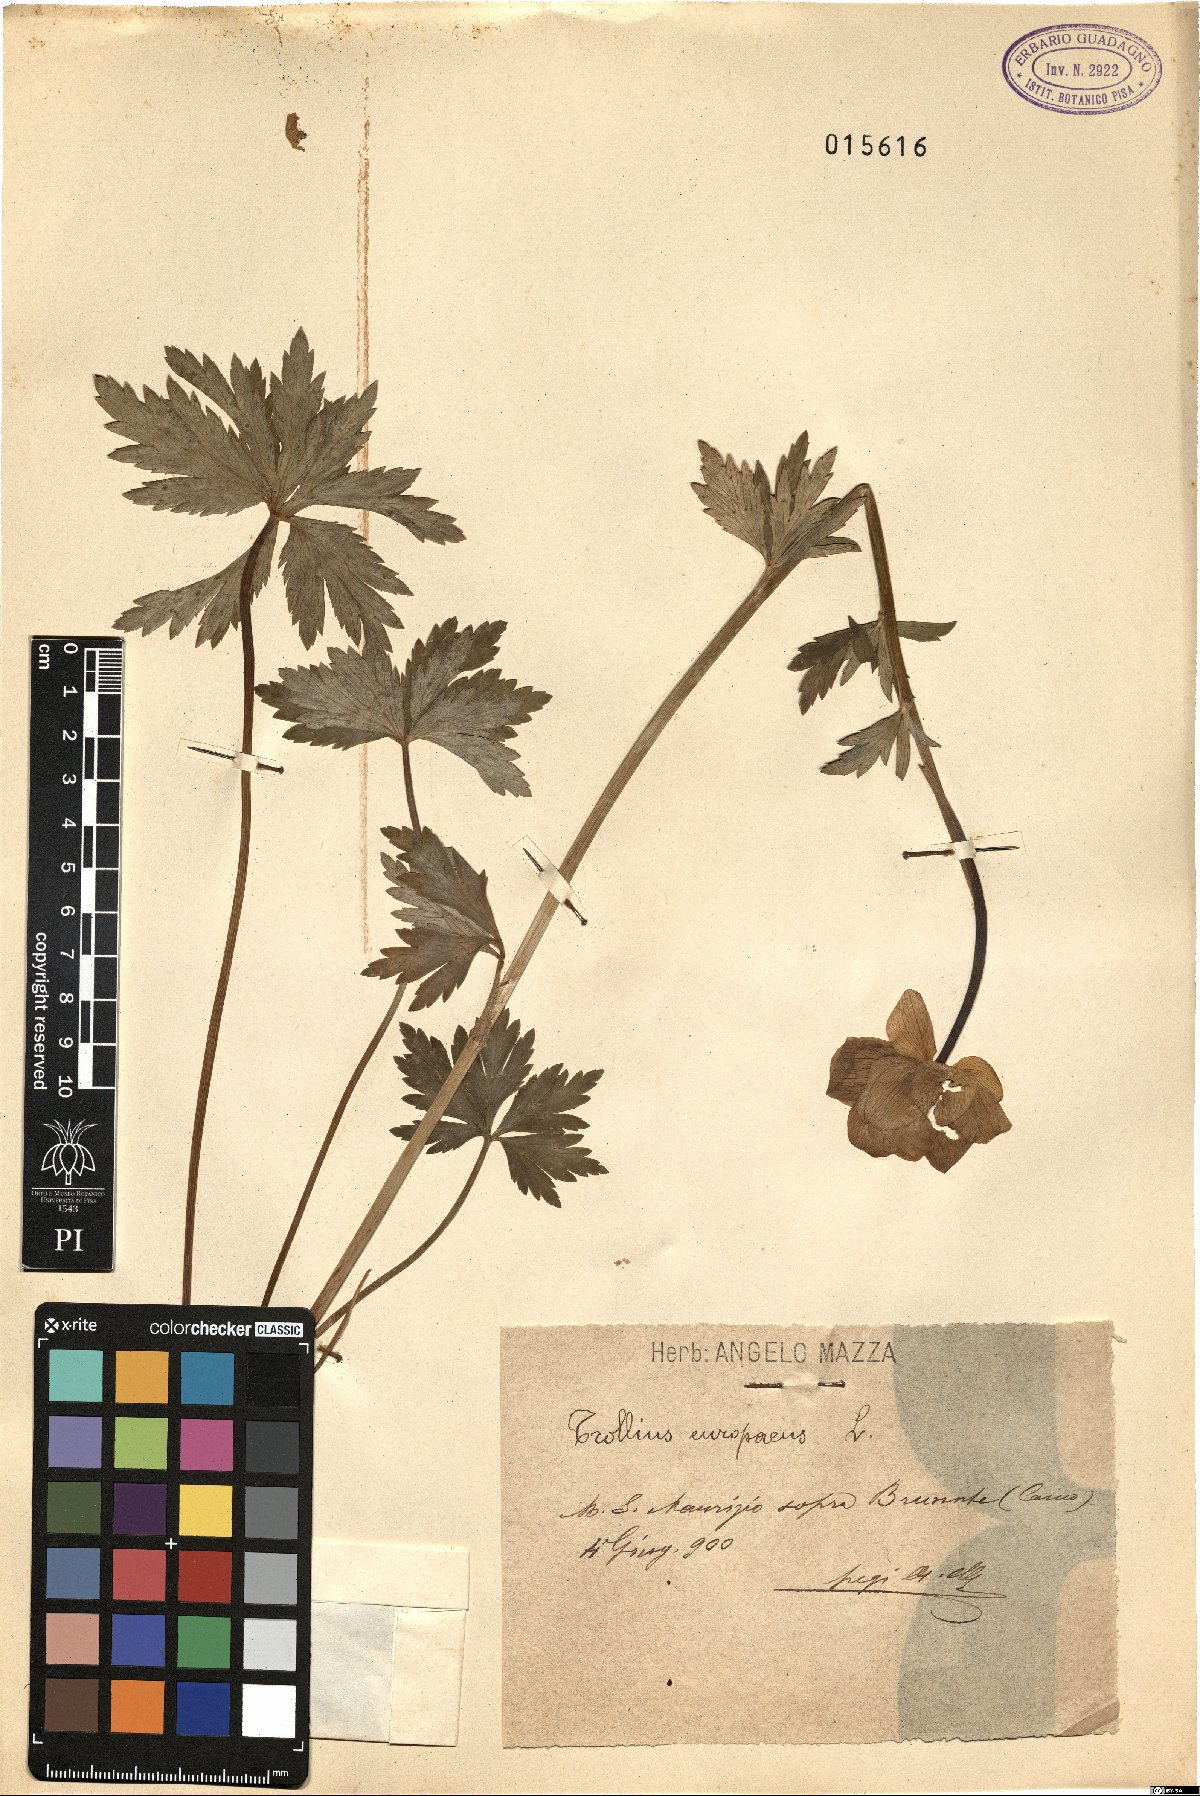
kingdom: Plantae
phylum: Tracheophyta
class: Magnoliopsida
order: Ranunculales
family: Ranunculaceae
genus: Trollius
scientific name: Trollius europaeus
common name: European globeflower
